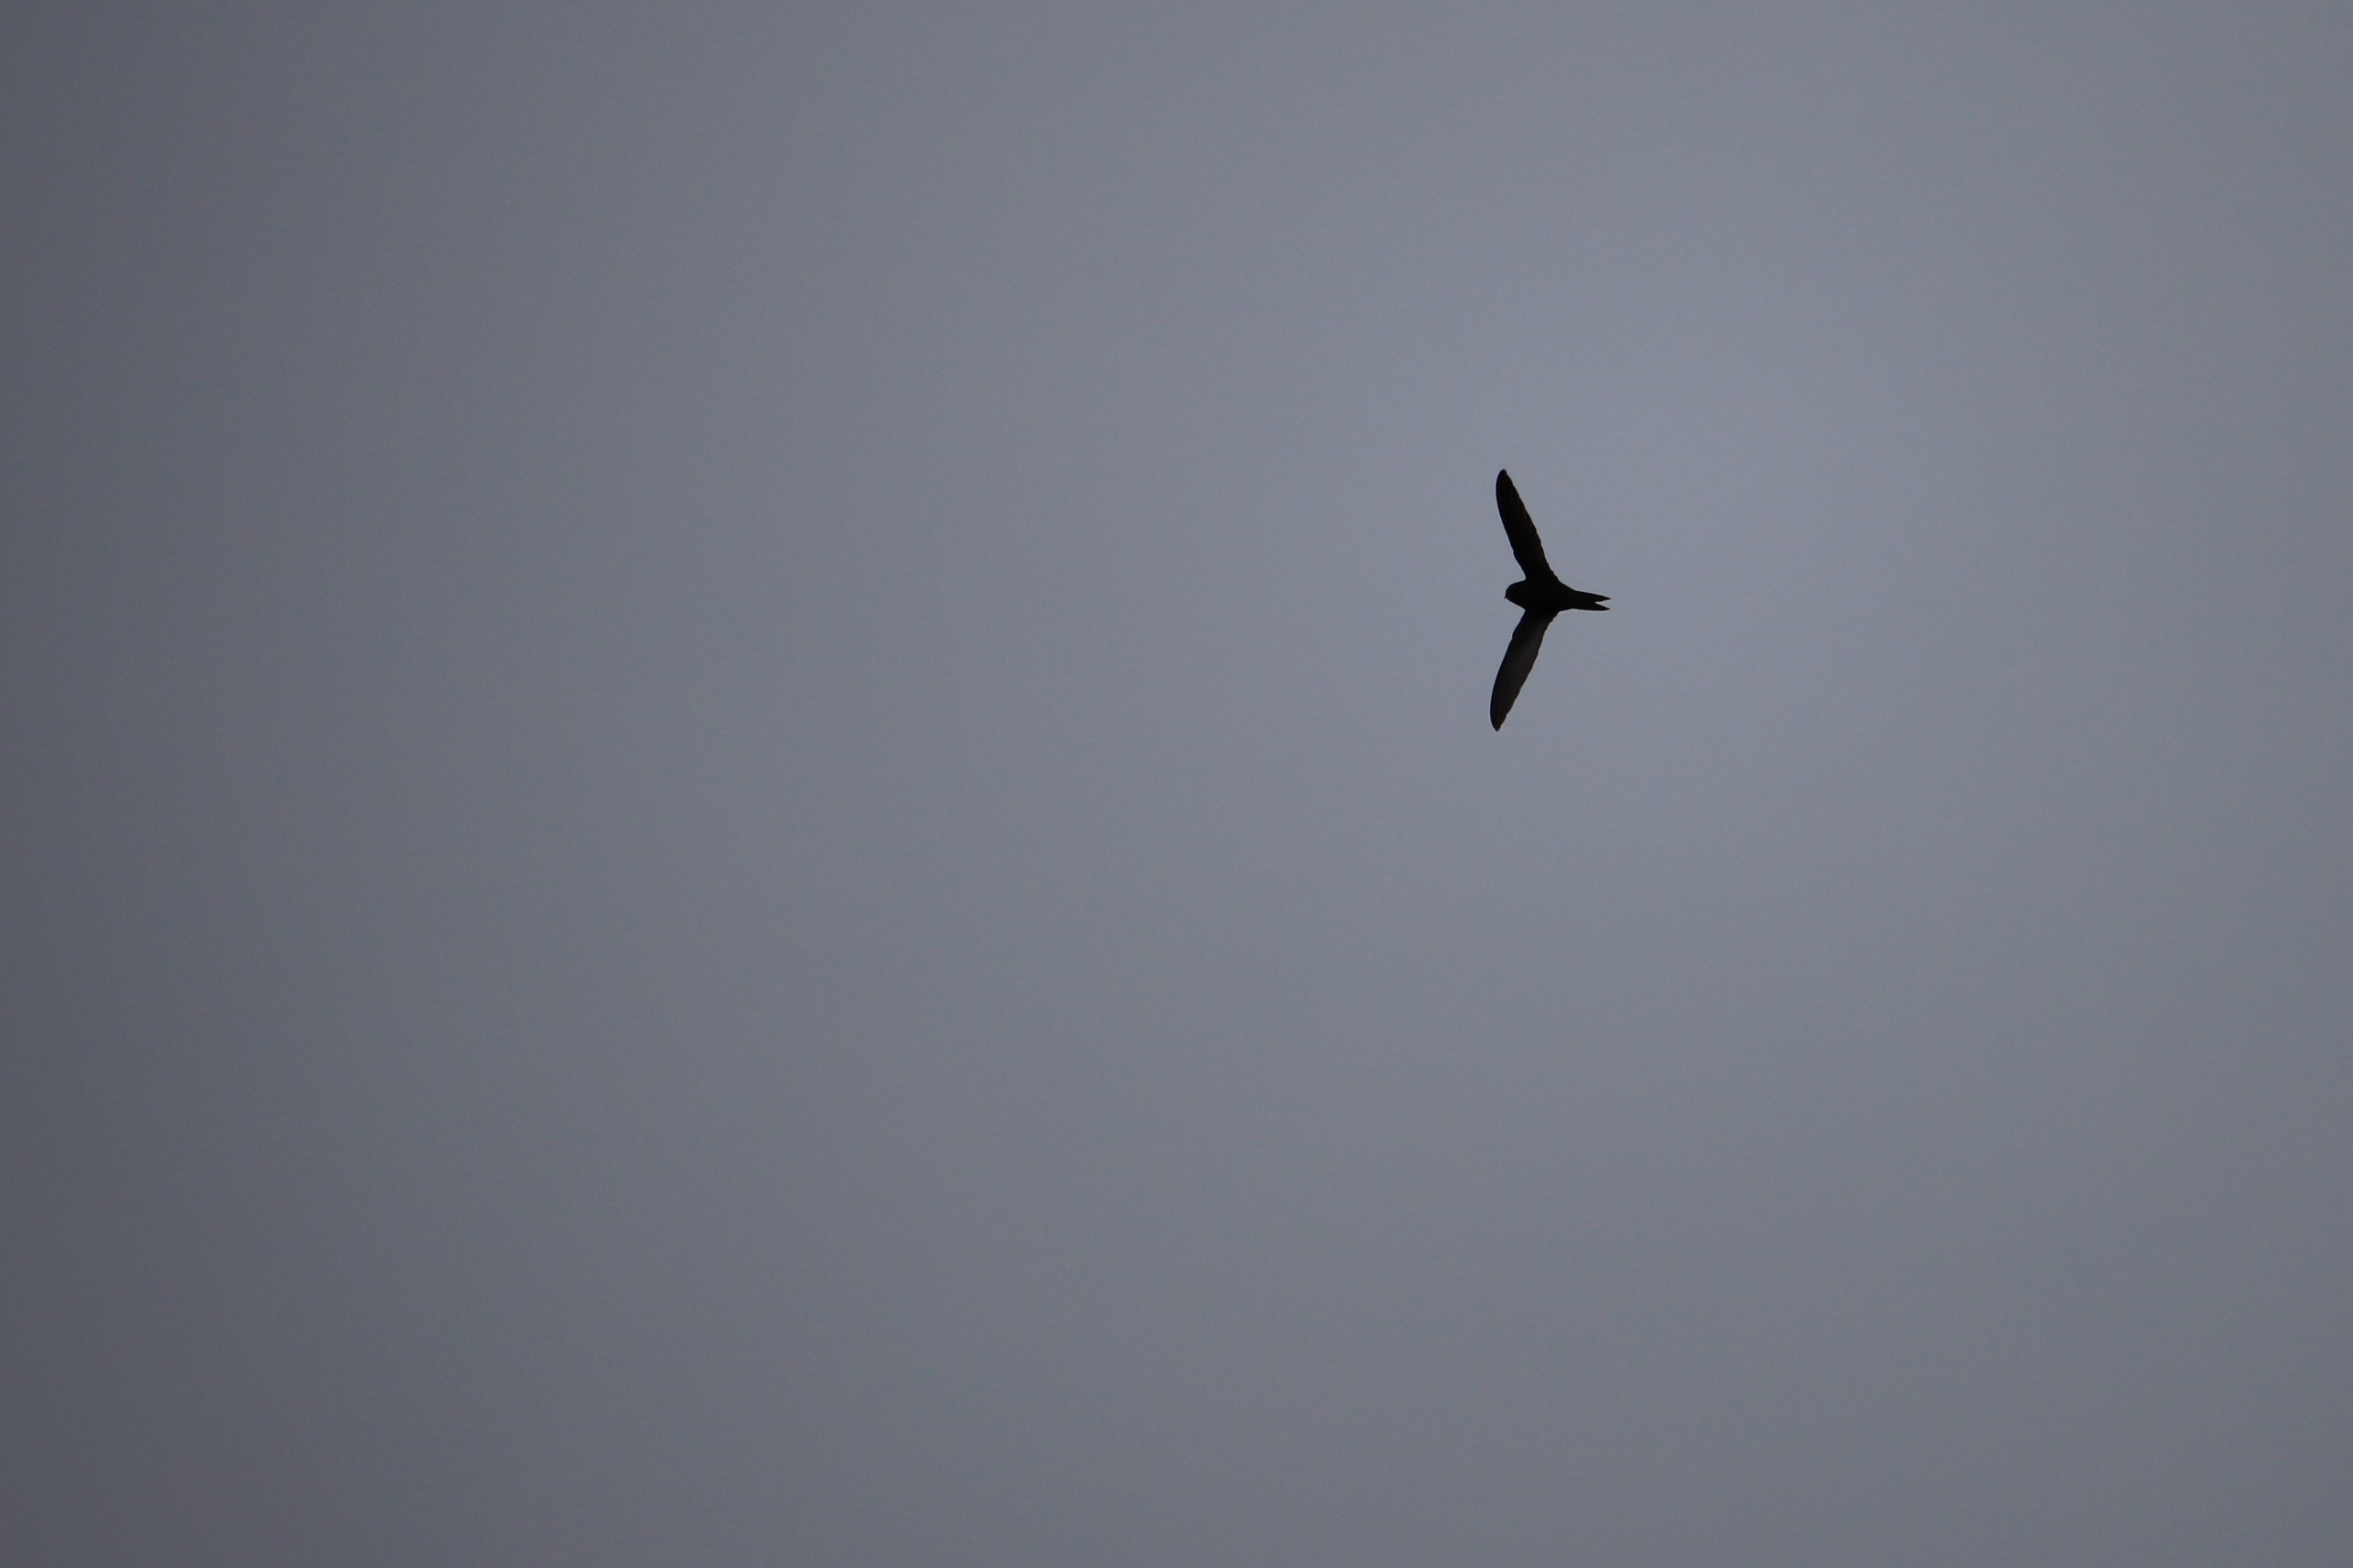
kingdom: Animalia
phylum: Chordata
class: Aves
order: Apodiformes
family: Apodidae
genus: Apus
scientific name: Apus apus
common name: Mursejler
